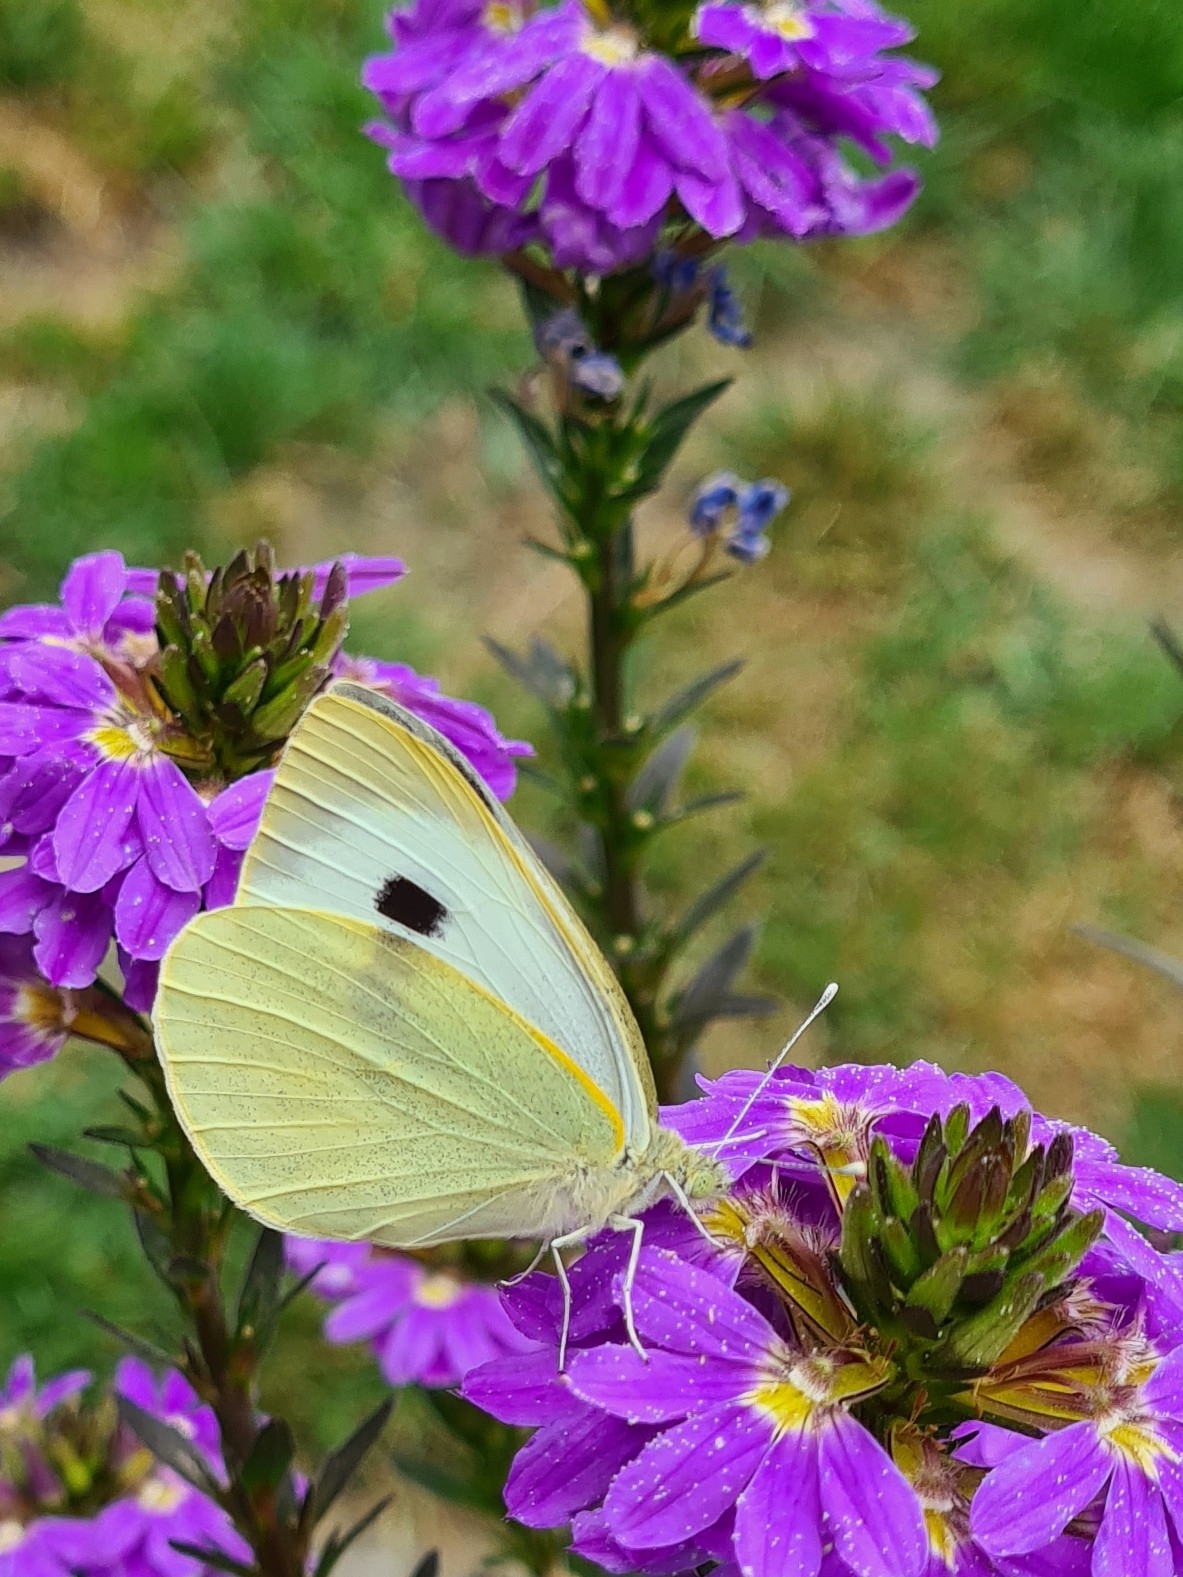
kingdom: Animalia
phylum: Arthropoda
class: Insecta
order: Lepidoptera
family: Pieridae
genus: Pieris
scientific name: Pieris brassicae
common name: Stor kålsommerfugl
